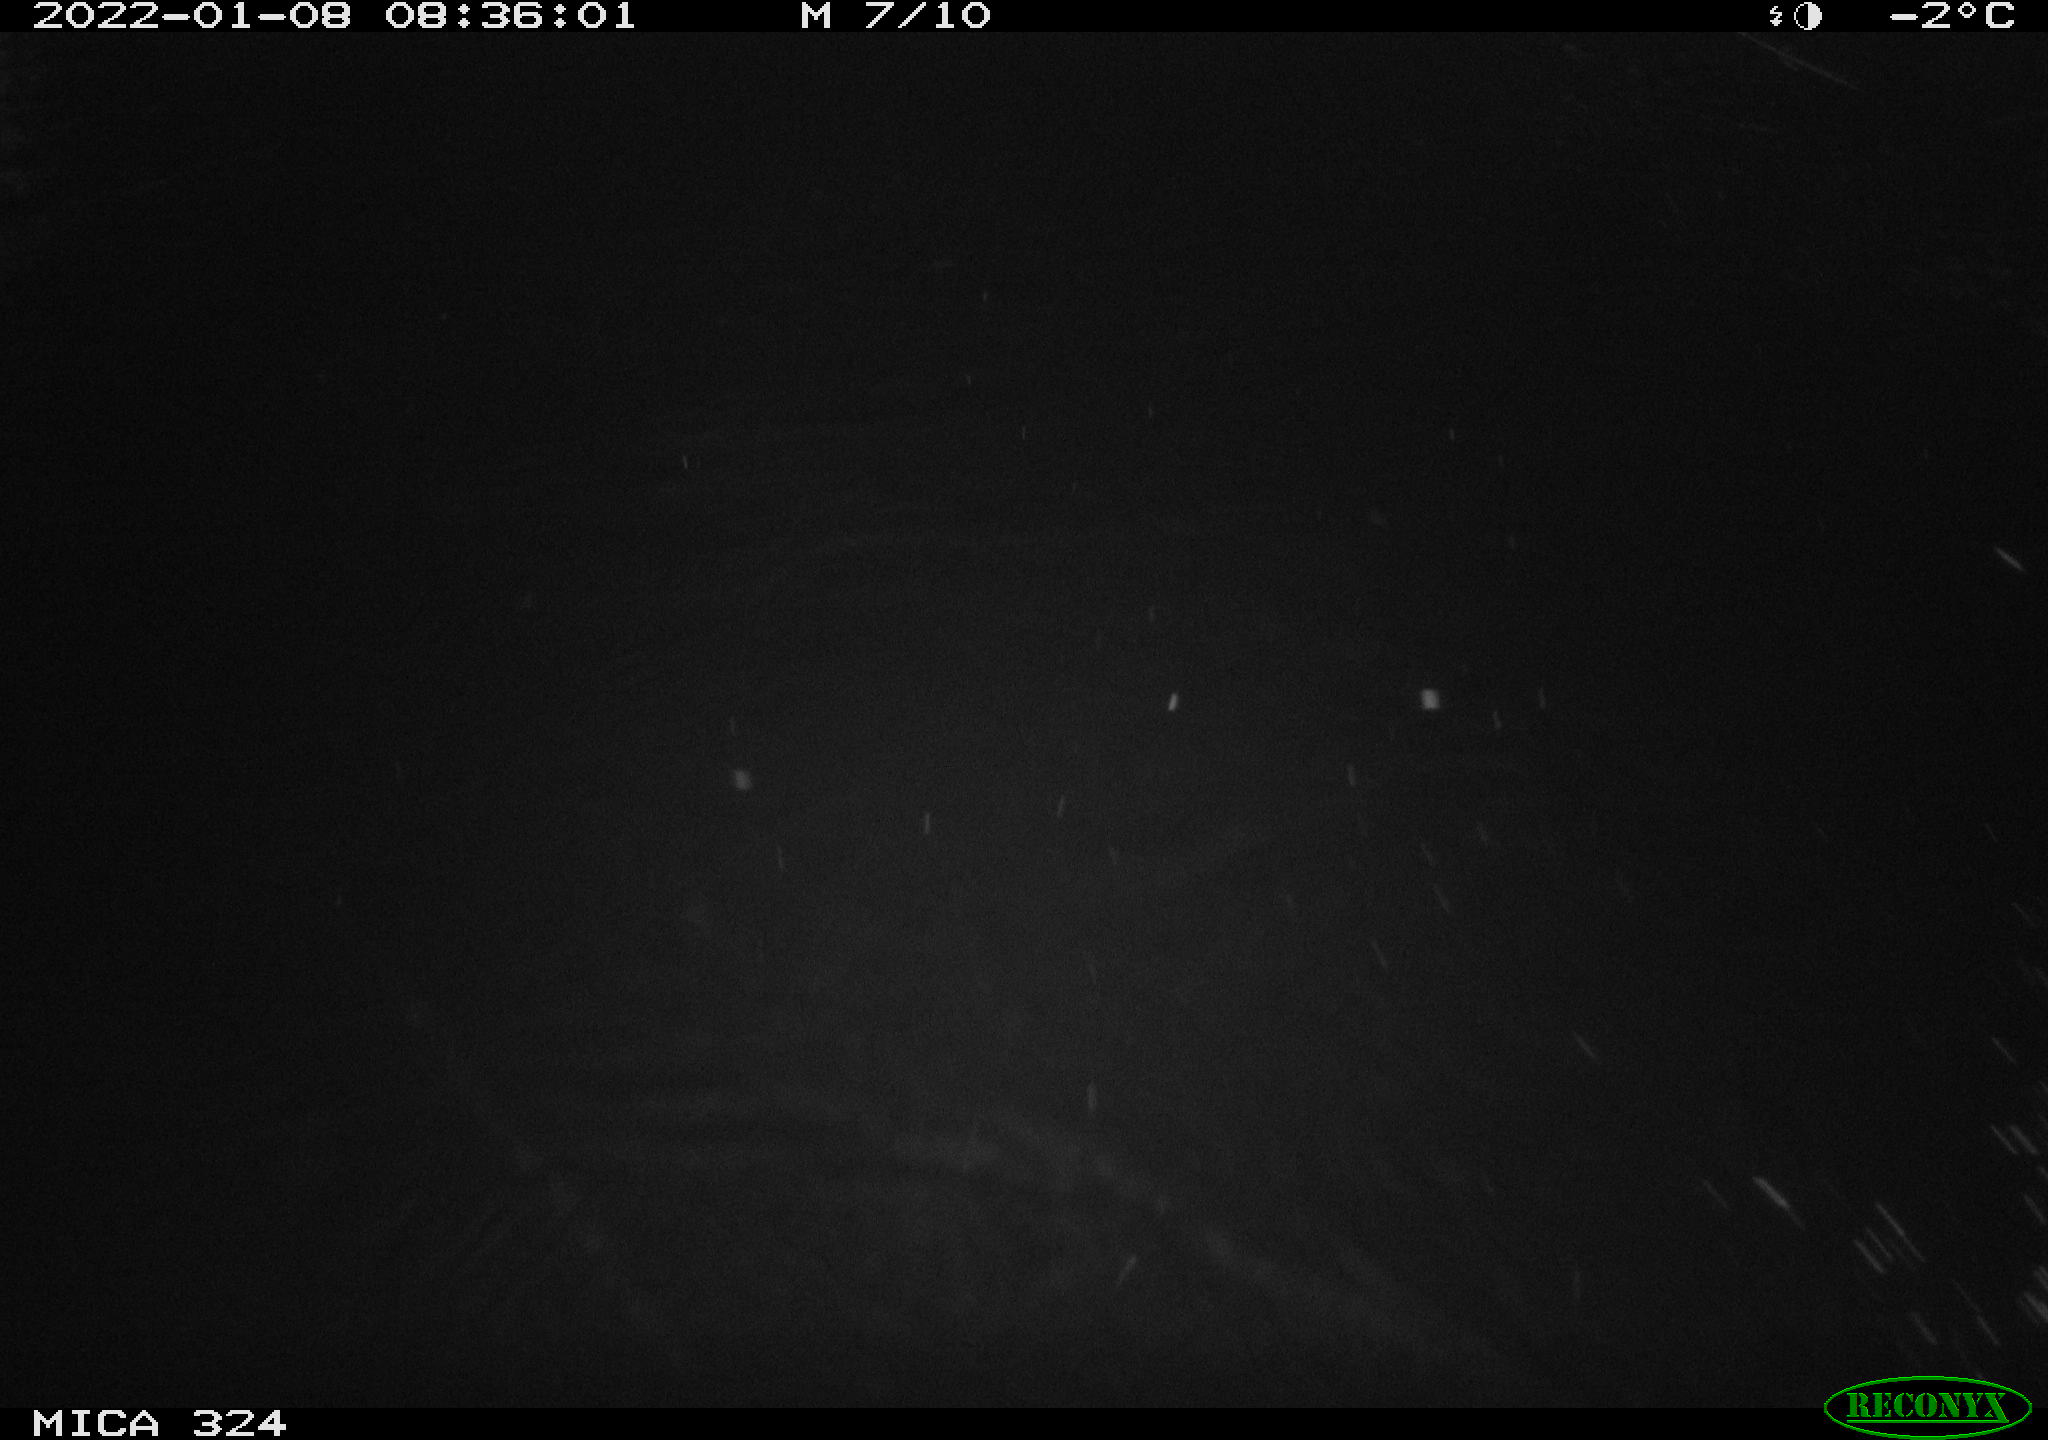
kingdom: Animalia
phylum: Chordata
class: Mammalia
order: Rodentia
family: Cricetidae
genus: Ondatra
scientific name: Ondatra zibethicus
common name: Muskrat
